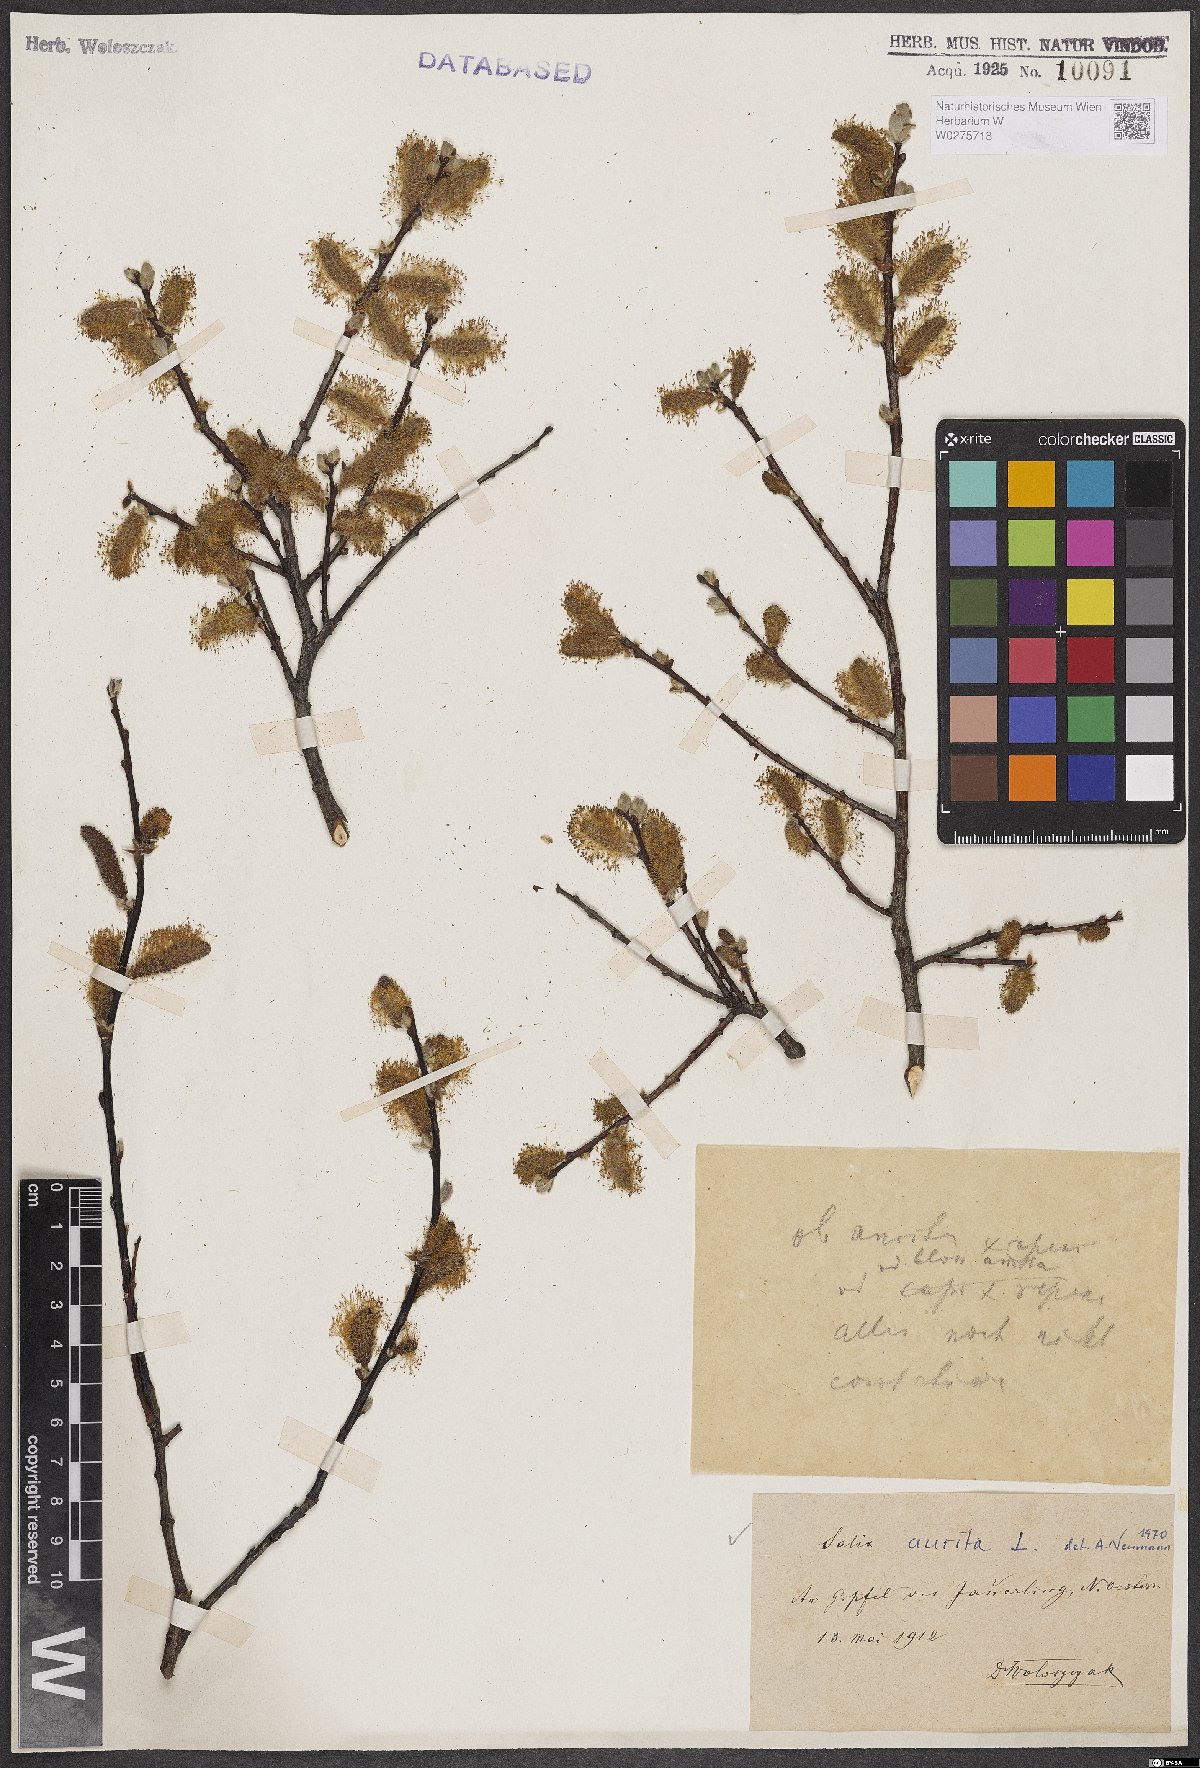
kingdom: Plantae
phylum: Tracheophyta
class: Magnoliopsida
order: Malpighiales
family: Salicaceae
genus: Salix
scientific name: Salix aurita
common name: Eared willow
